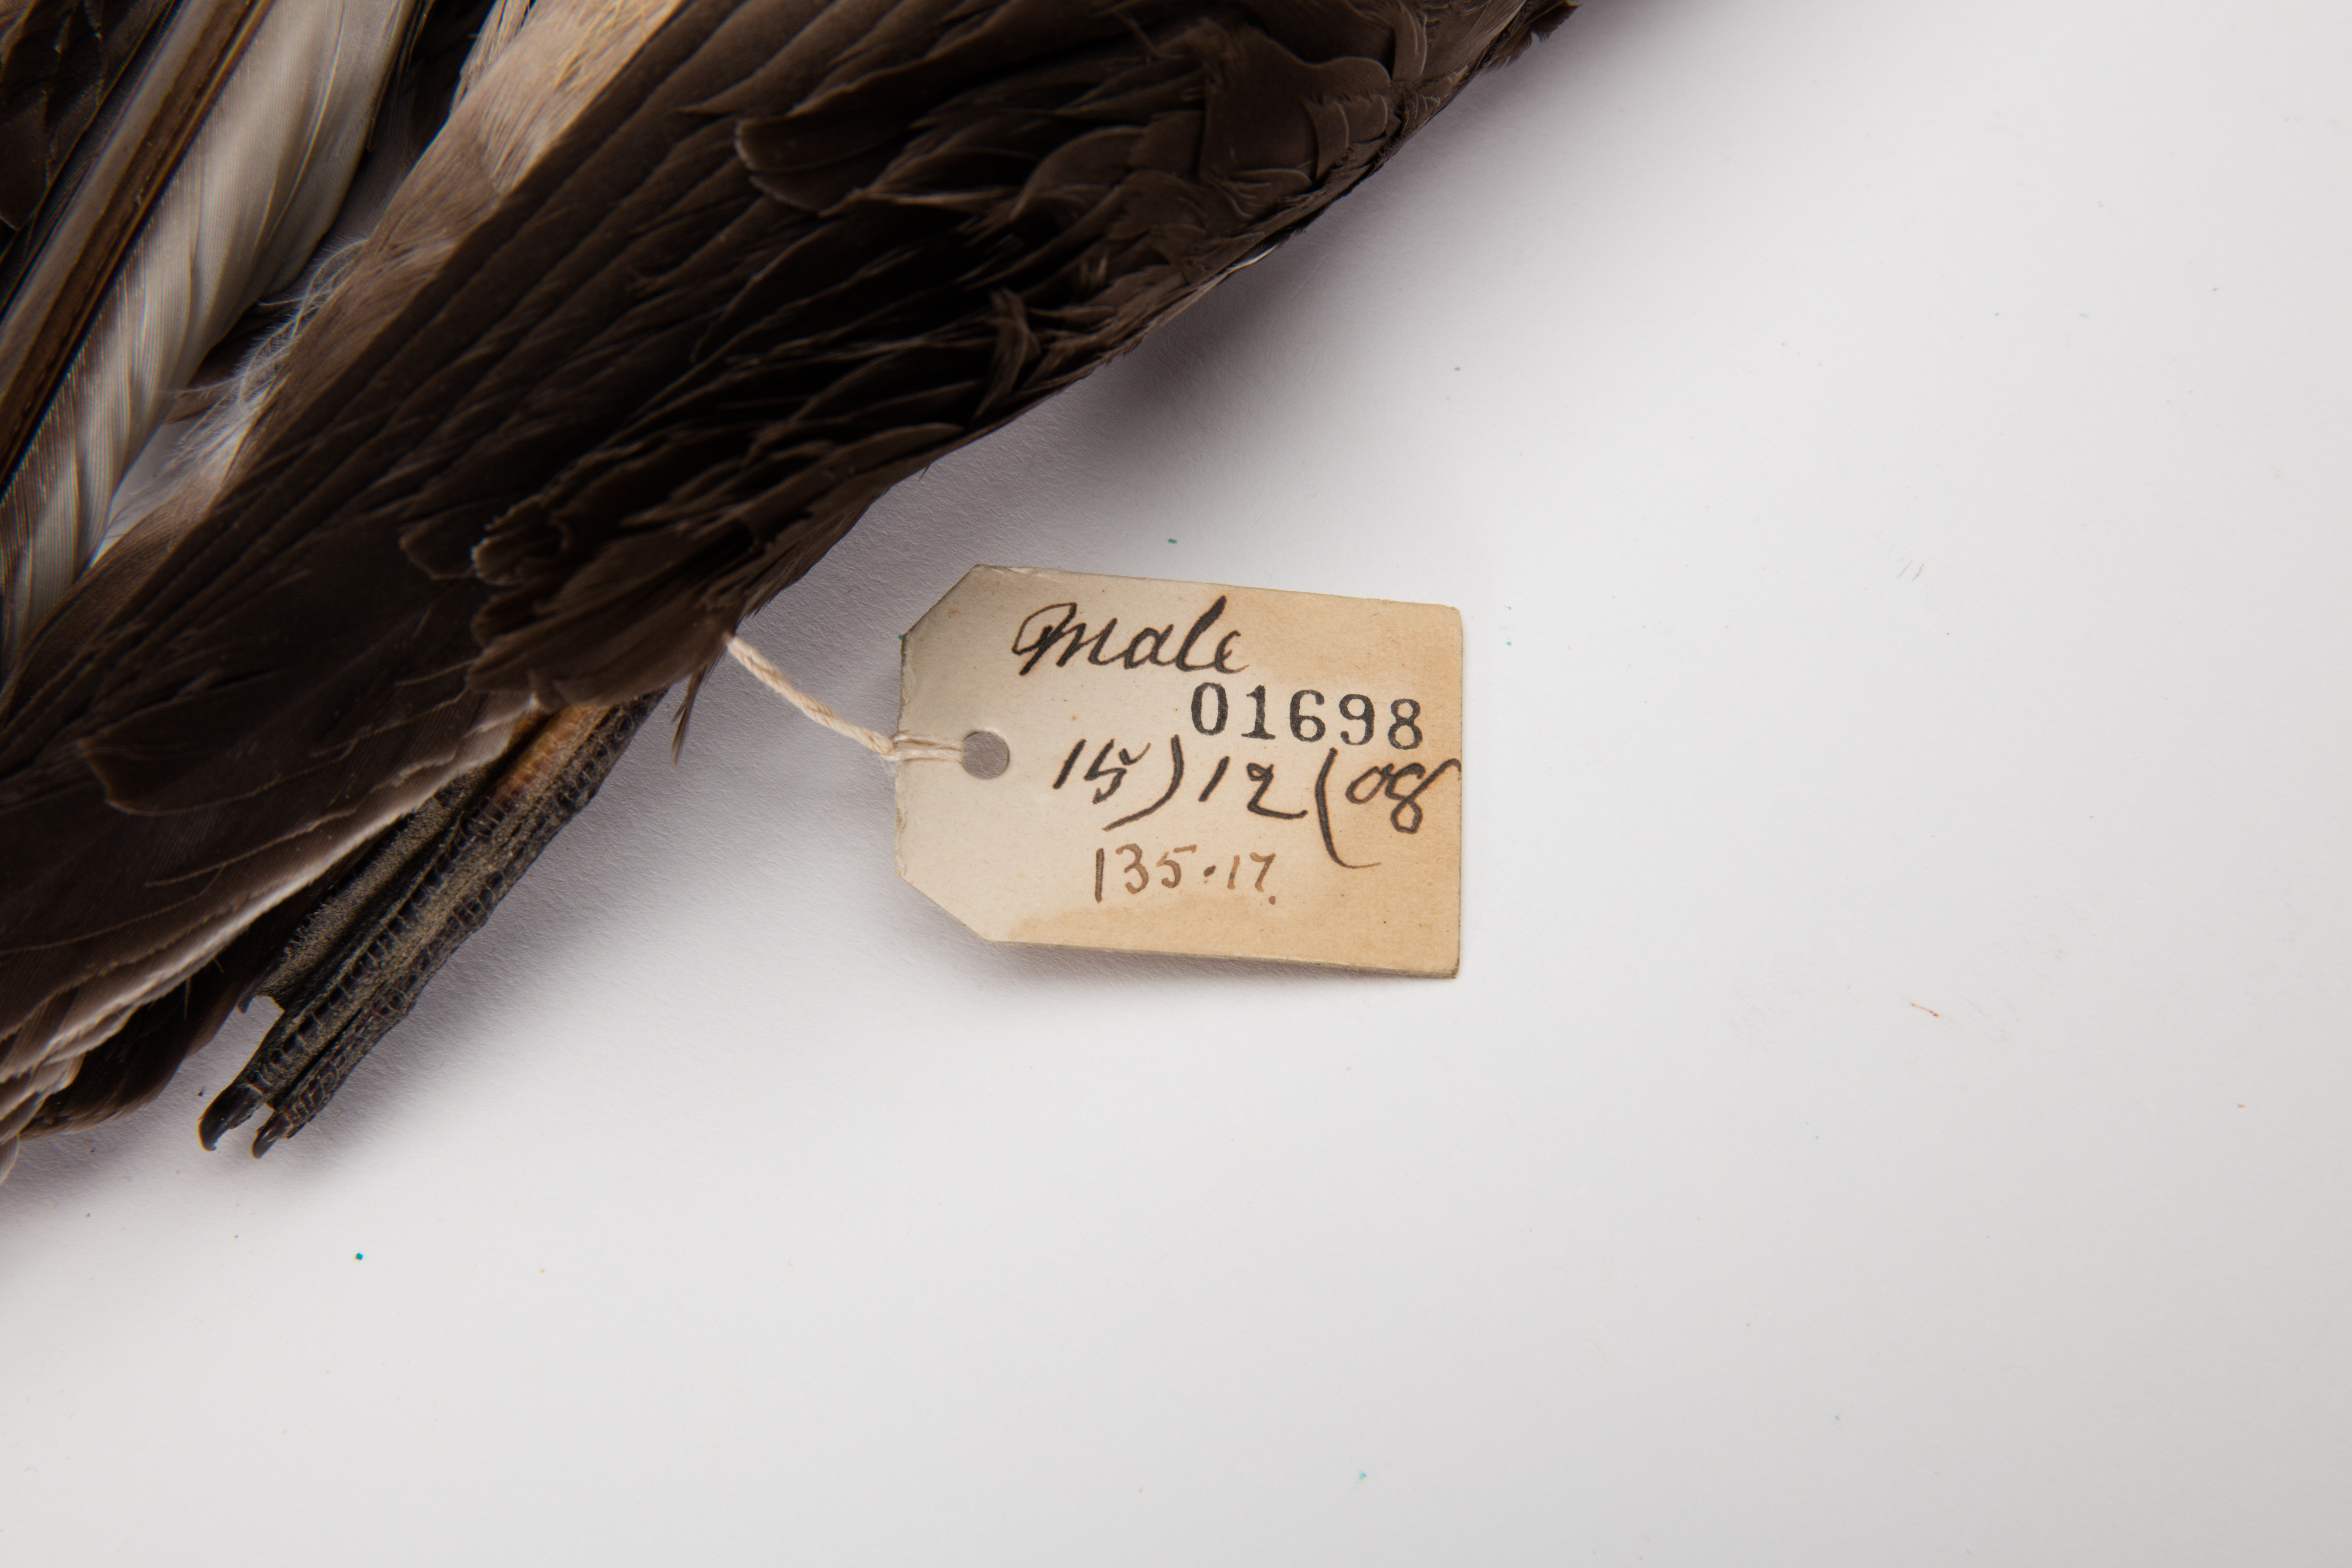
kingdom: Animalia
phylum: Chordata
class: Aves
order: Procellariiformes
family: Procellariidae
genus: Pterodroma
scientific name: Pterodroma neglecta
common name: Kermadec petrel
